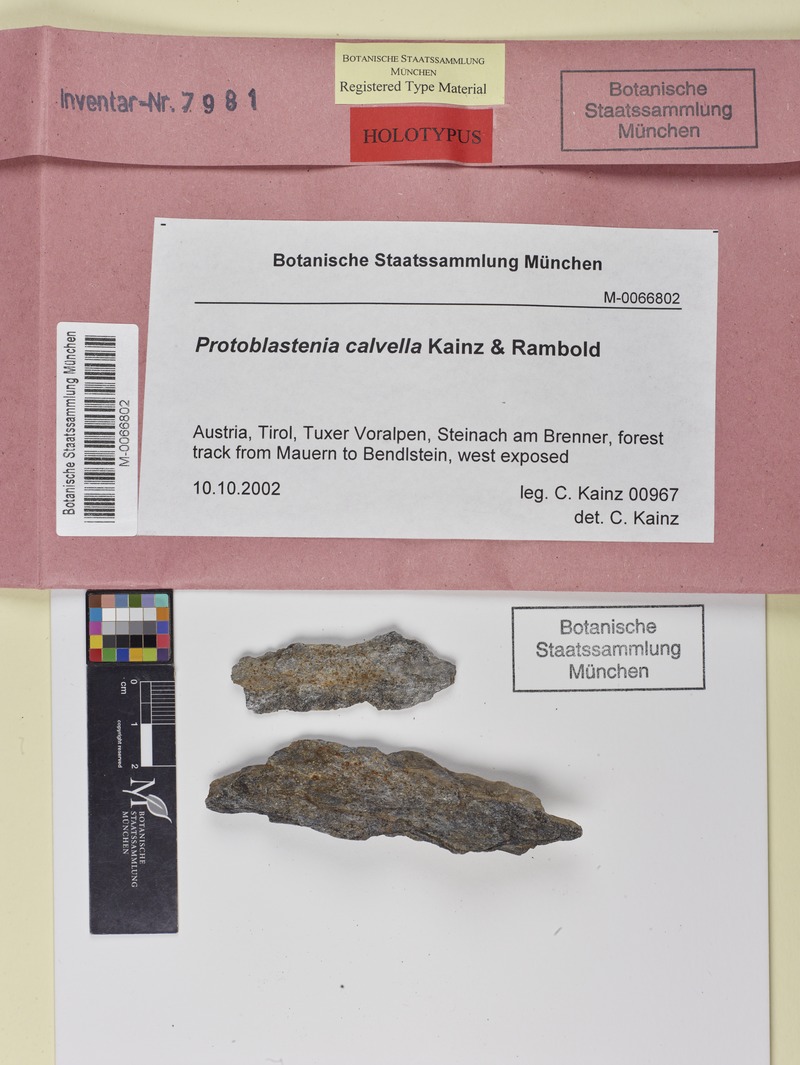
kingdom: Fungi
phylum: Ascomycota
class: Lecanoromycetes
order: Lecanorales
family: Psoraceae
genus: Protoblastenia
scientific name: Protoblastenia calvella
